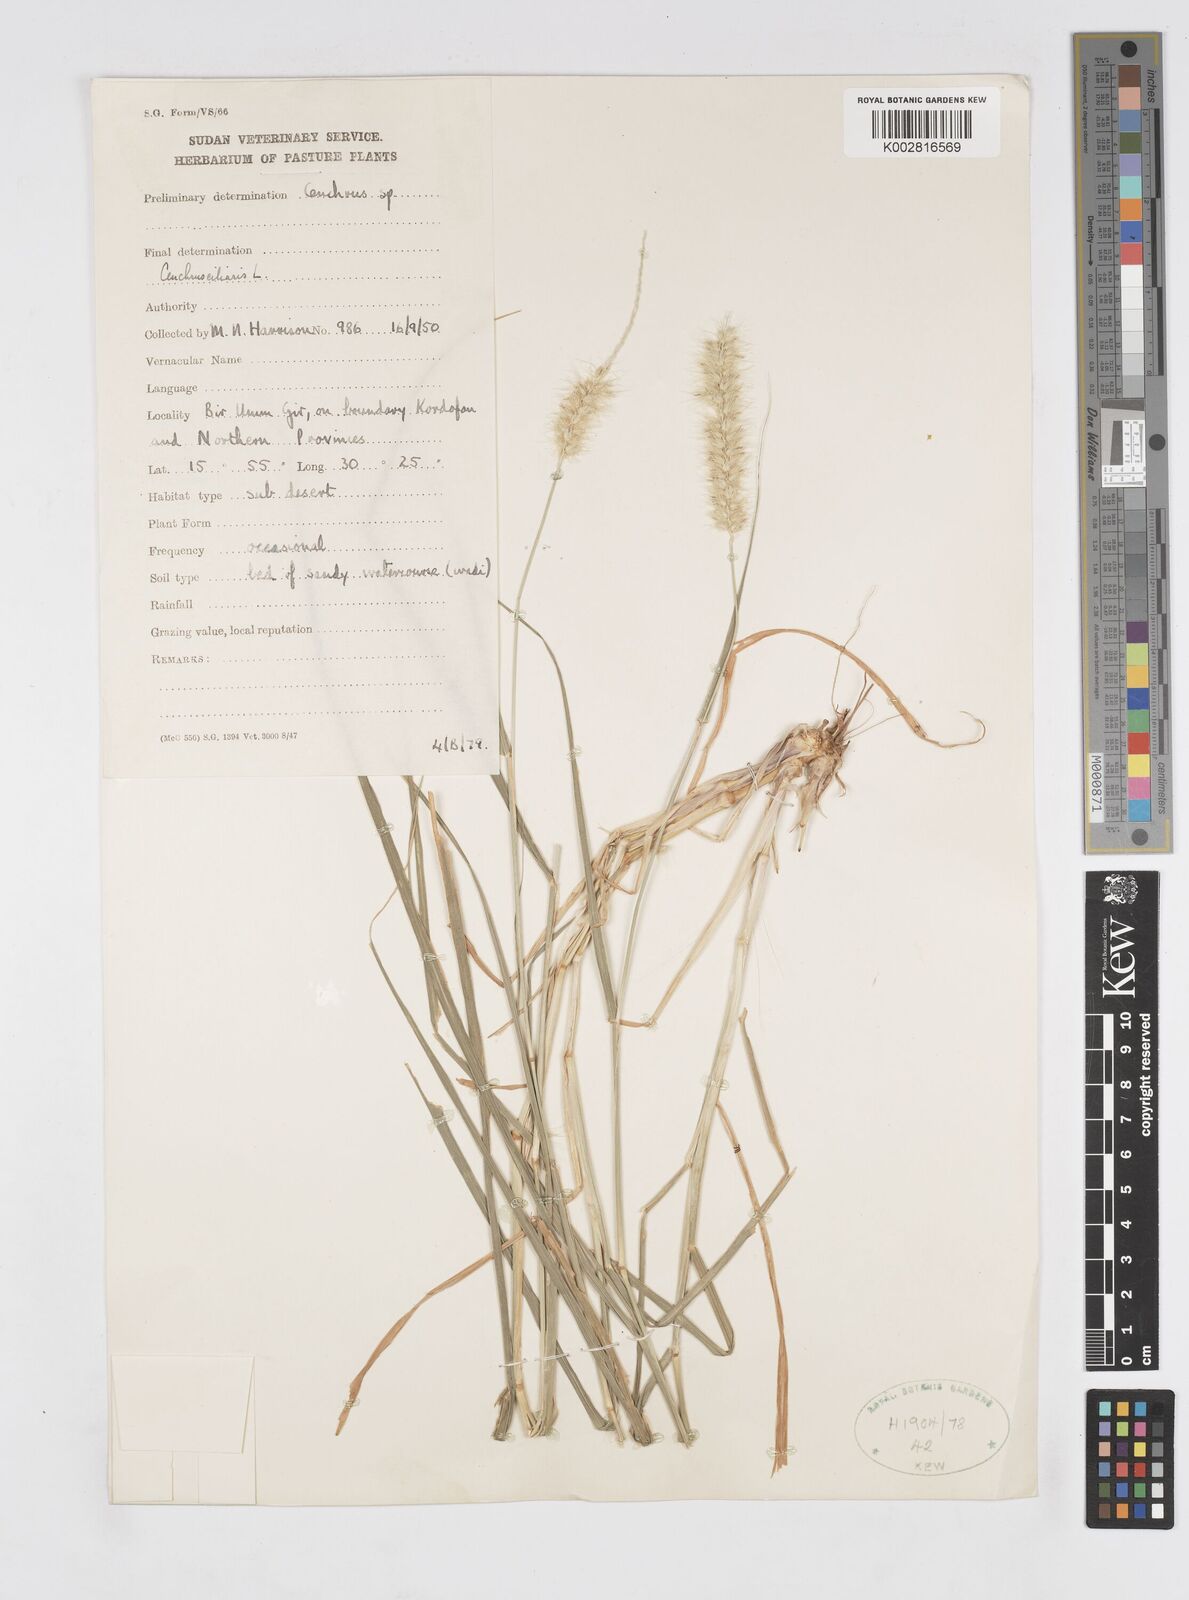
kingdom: Plantae
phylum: Tracheophyta
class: Liliopsida
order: Poales
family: Poaceae
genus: Cenchrus
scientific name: Cenchrus ciliaris
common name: Buffelgrass
